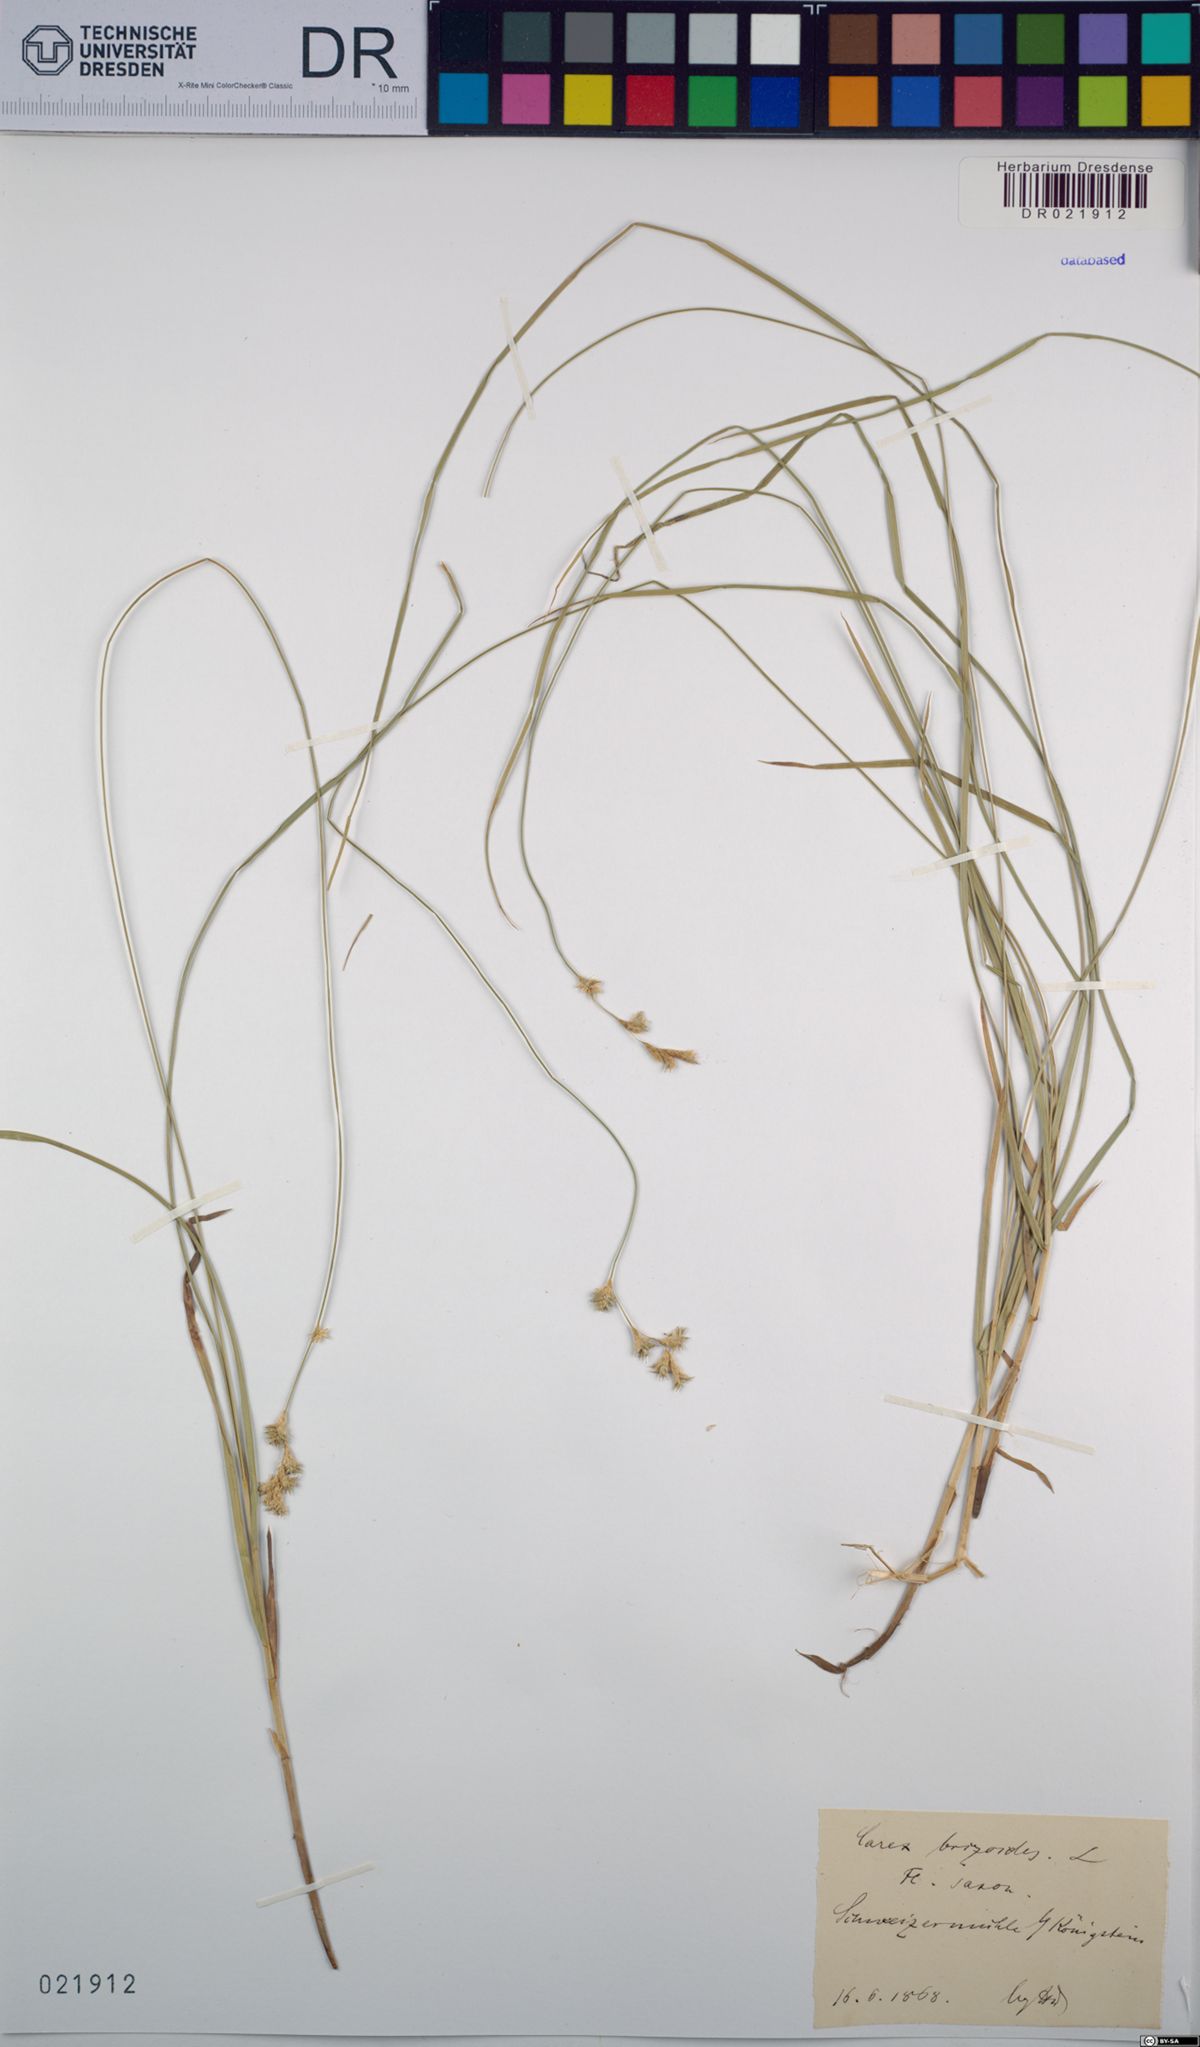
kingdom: Plantae
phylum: Tracheophyta
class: Liliopsida
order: Poales
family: Cyperaceae
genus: Carex
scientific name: Carex brizoides
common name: Quaking-grass sedge
